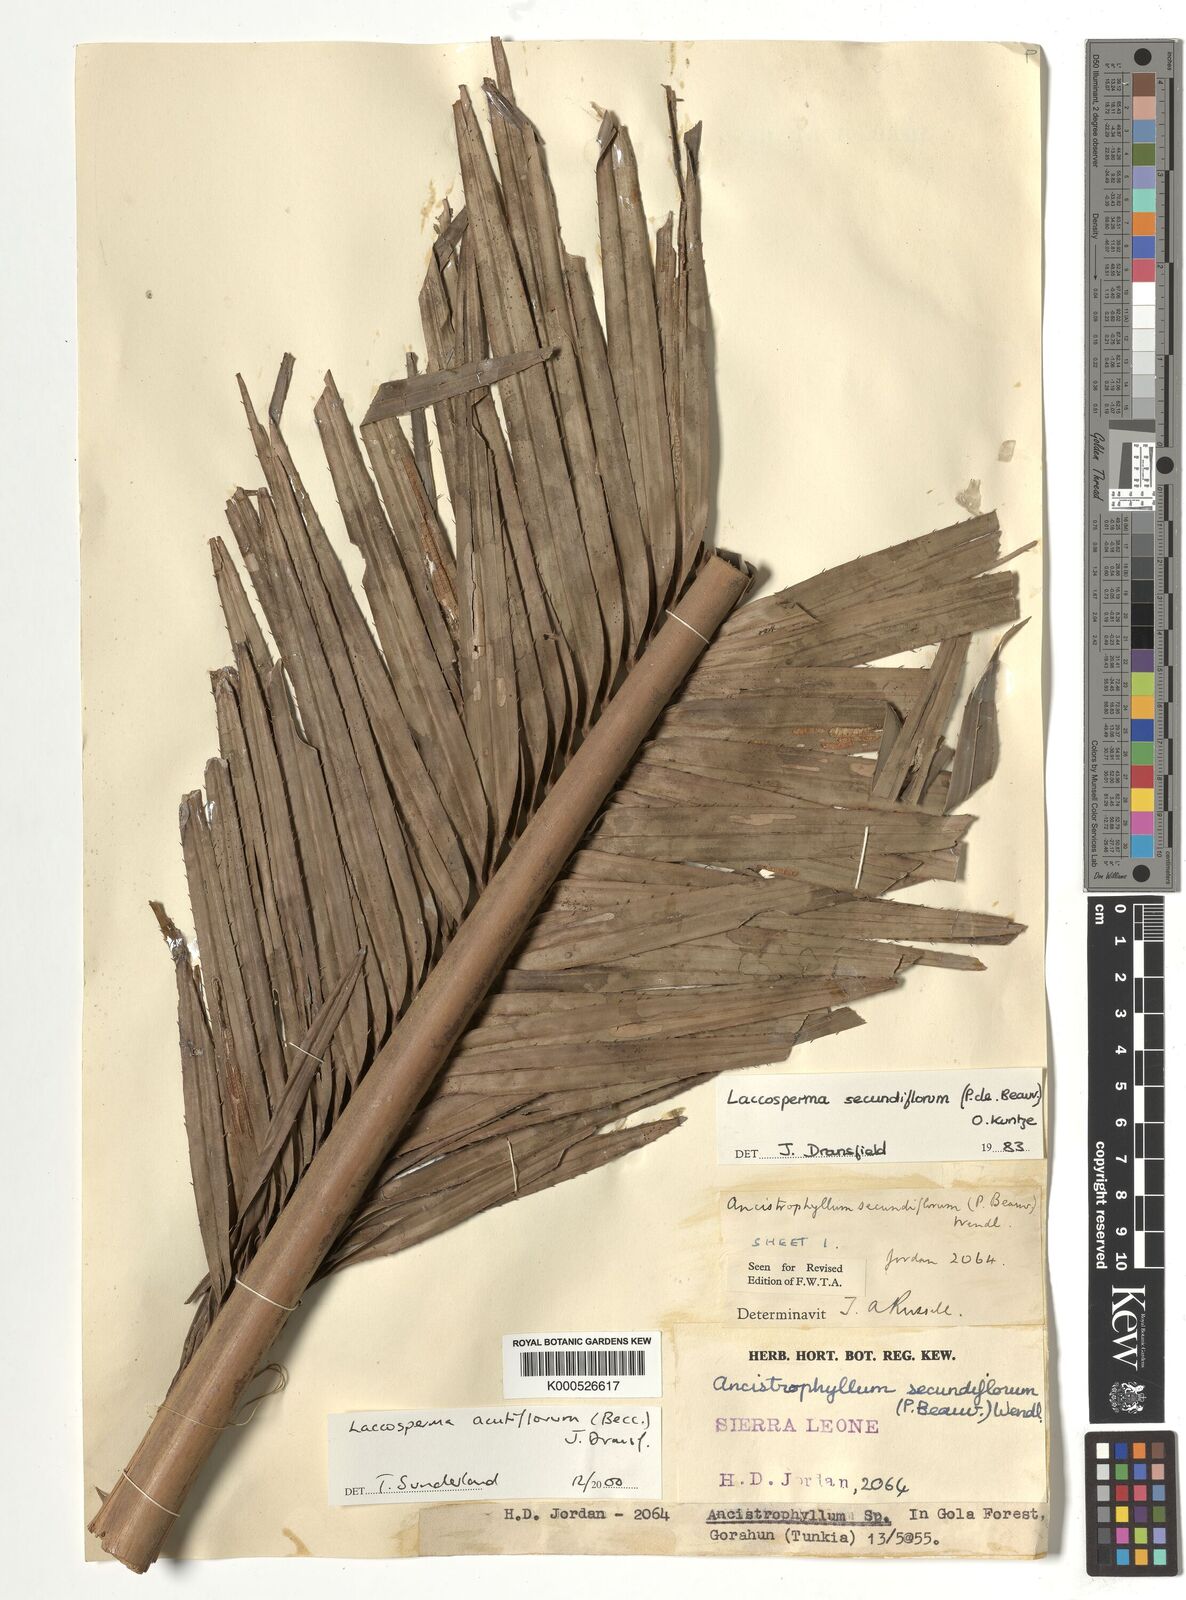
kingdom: Plantae
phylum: Tracheophyta
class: Liliopsida
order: Arecales
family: Arecaceae
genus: Laccosperma
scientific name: Laccosperma acutiflorum
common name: Rattan
